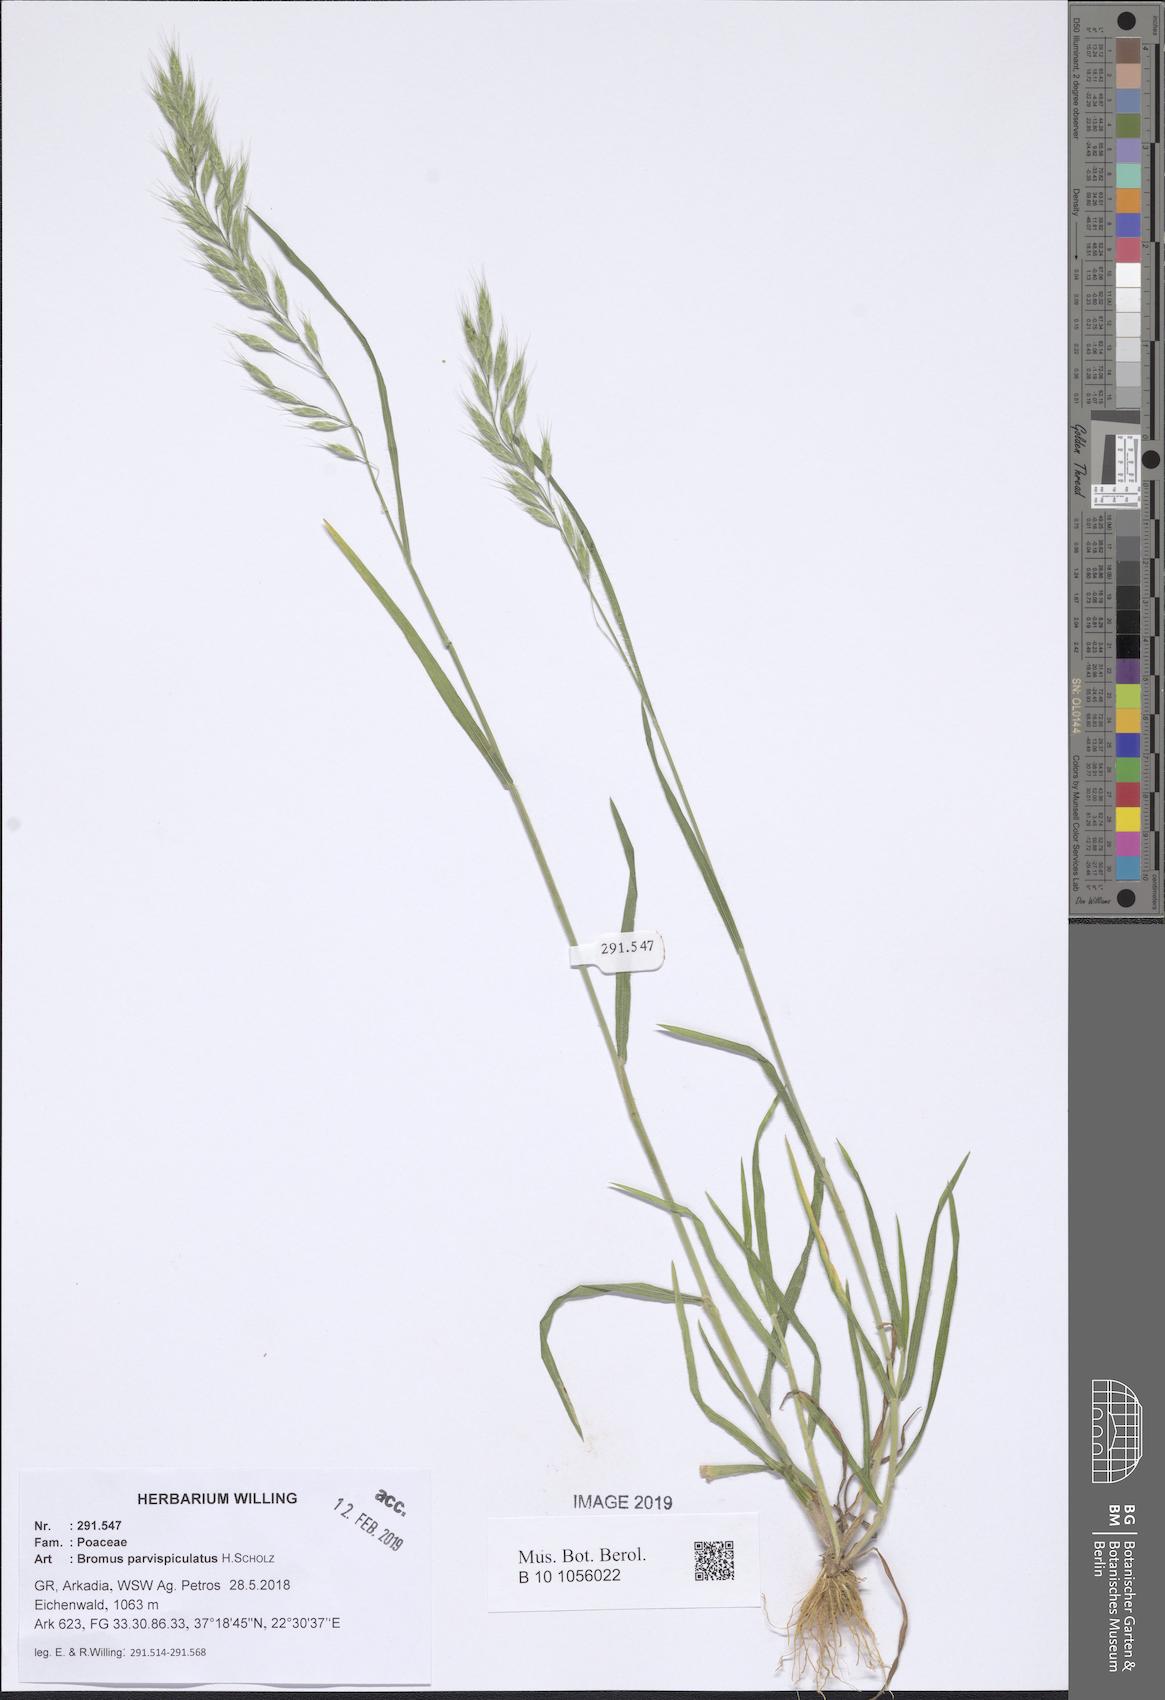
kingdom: Plantae
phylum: Tracheophyta
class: Liliopsida
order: Poales
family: Poaceae
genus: Bromus
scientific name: Bromus hordeaceus
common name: Soft brome
